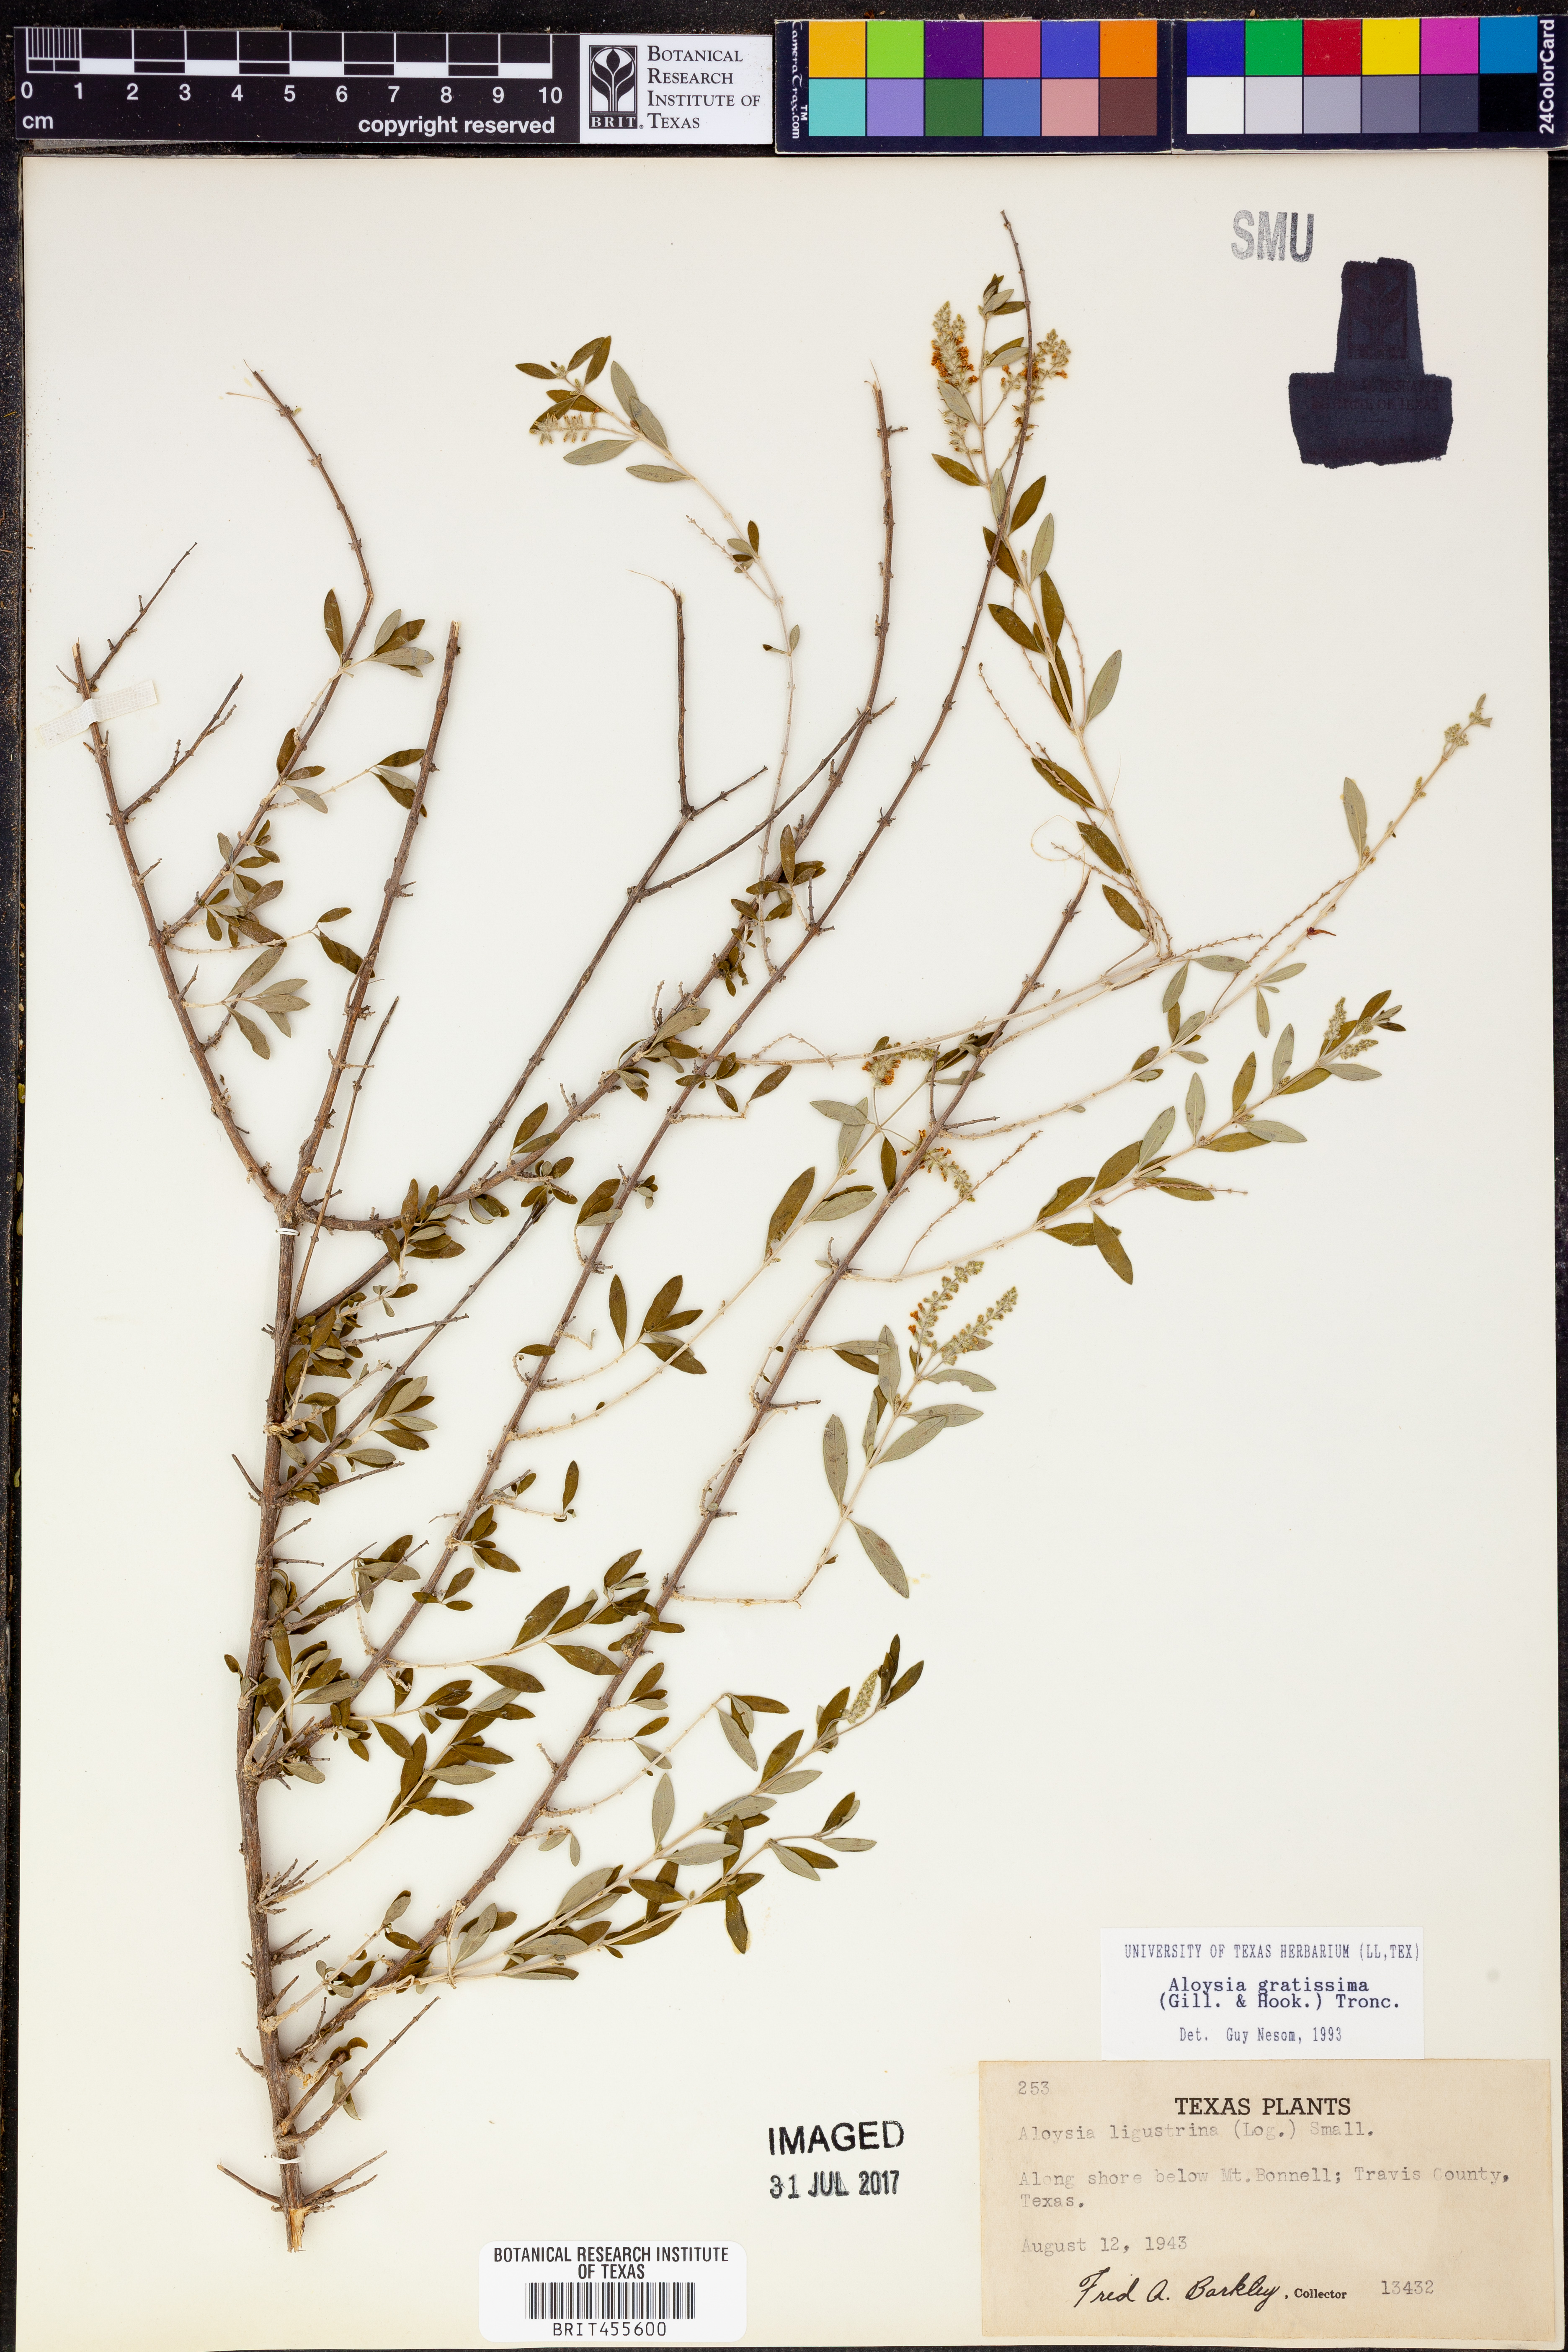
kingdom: Plantae
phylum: Tracheophyta
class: Magnoliopsida
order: Lamiales
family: Verbenaceae
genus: Aloysia
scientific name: Aloysia gratissima
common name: Common bee-brush
